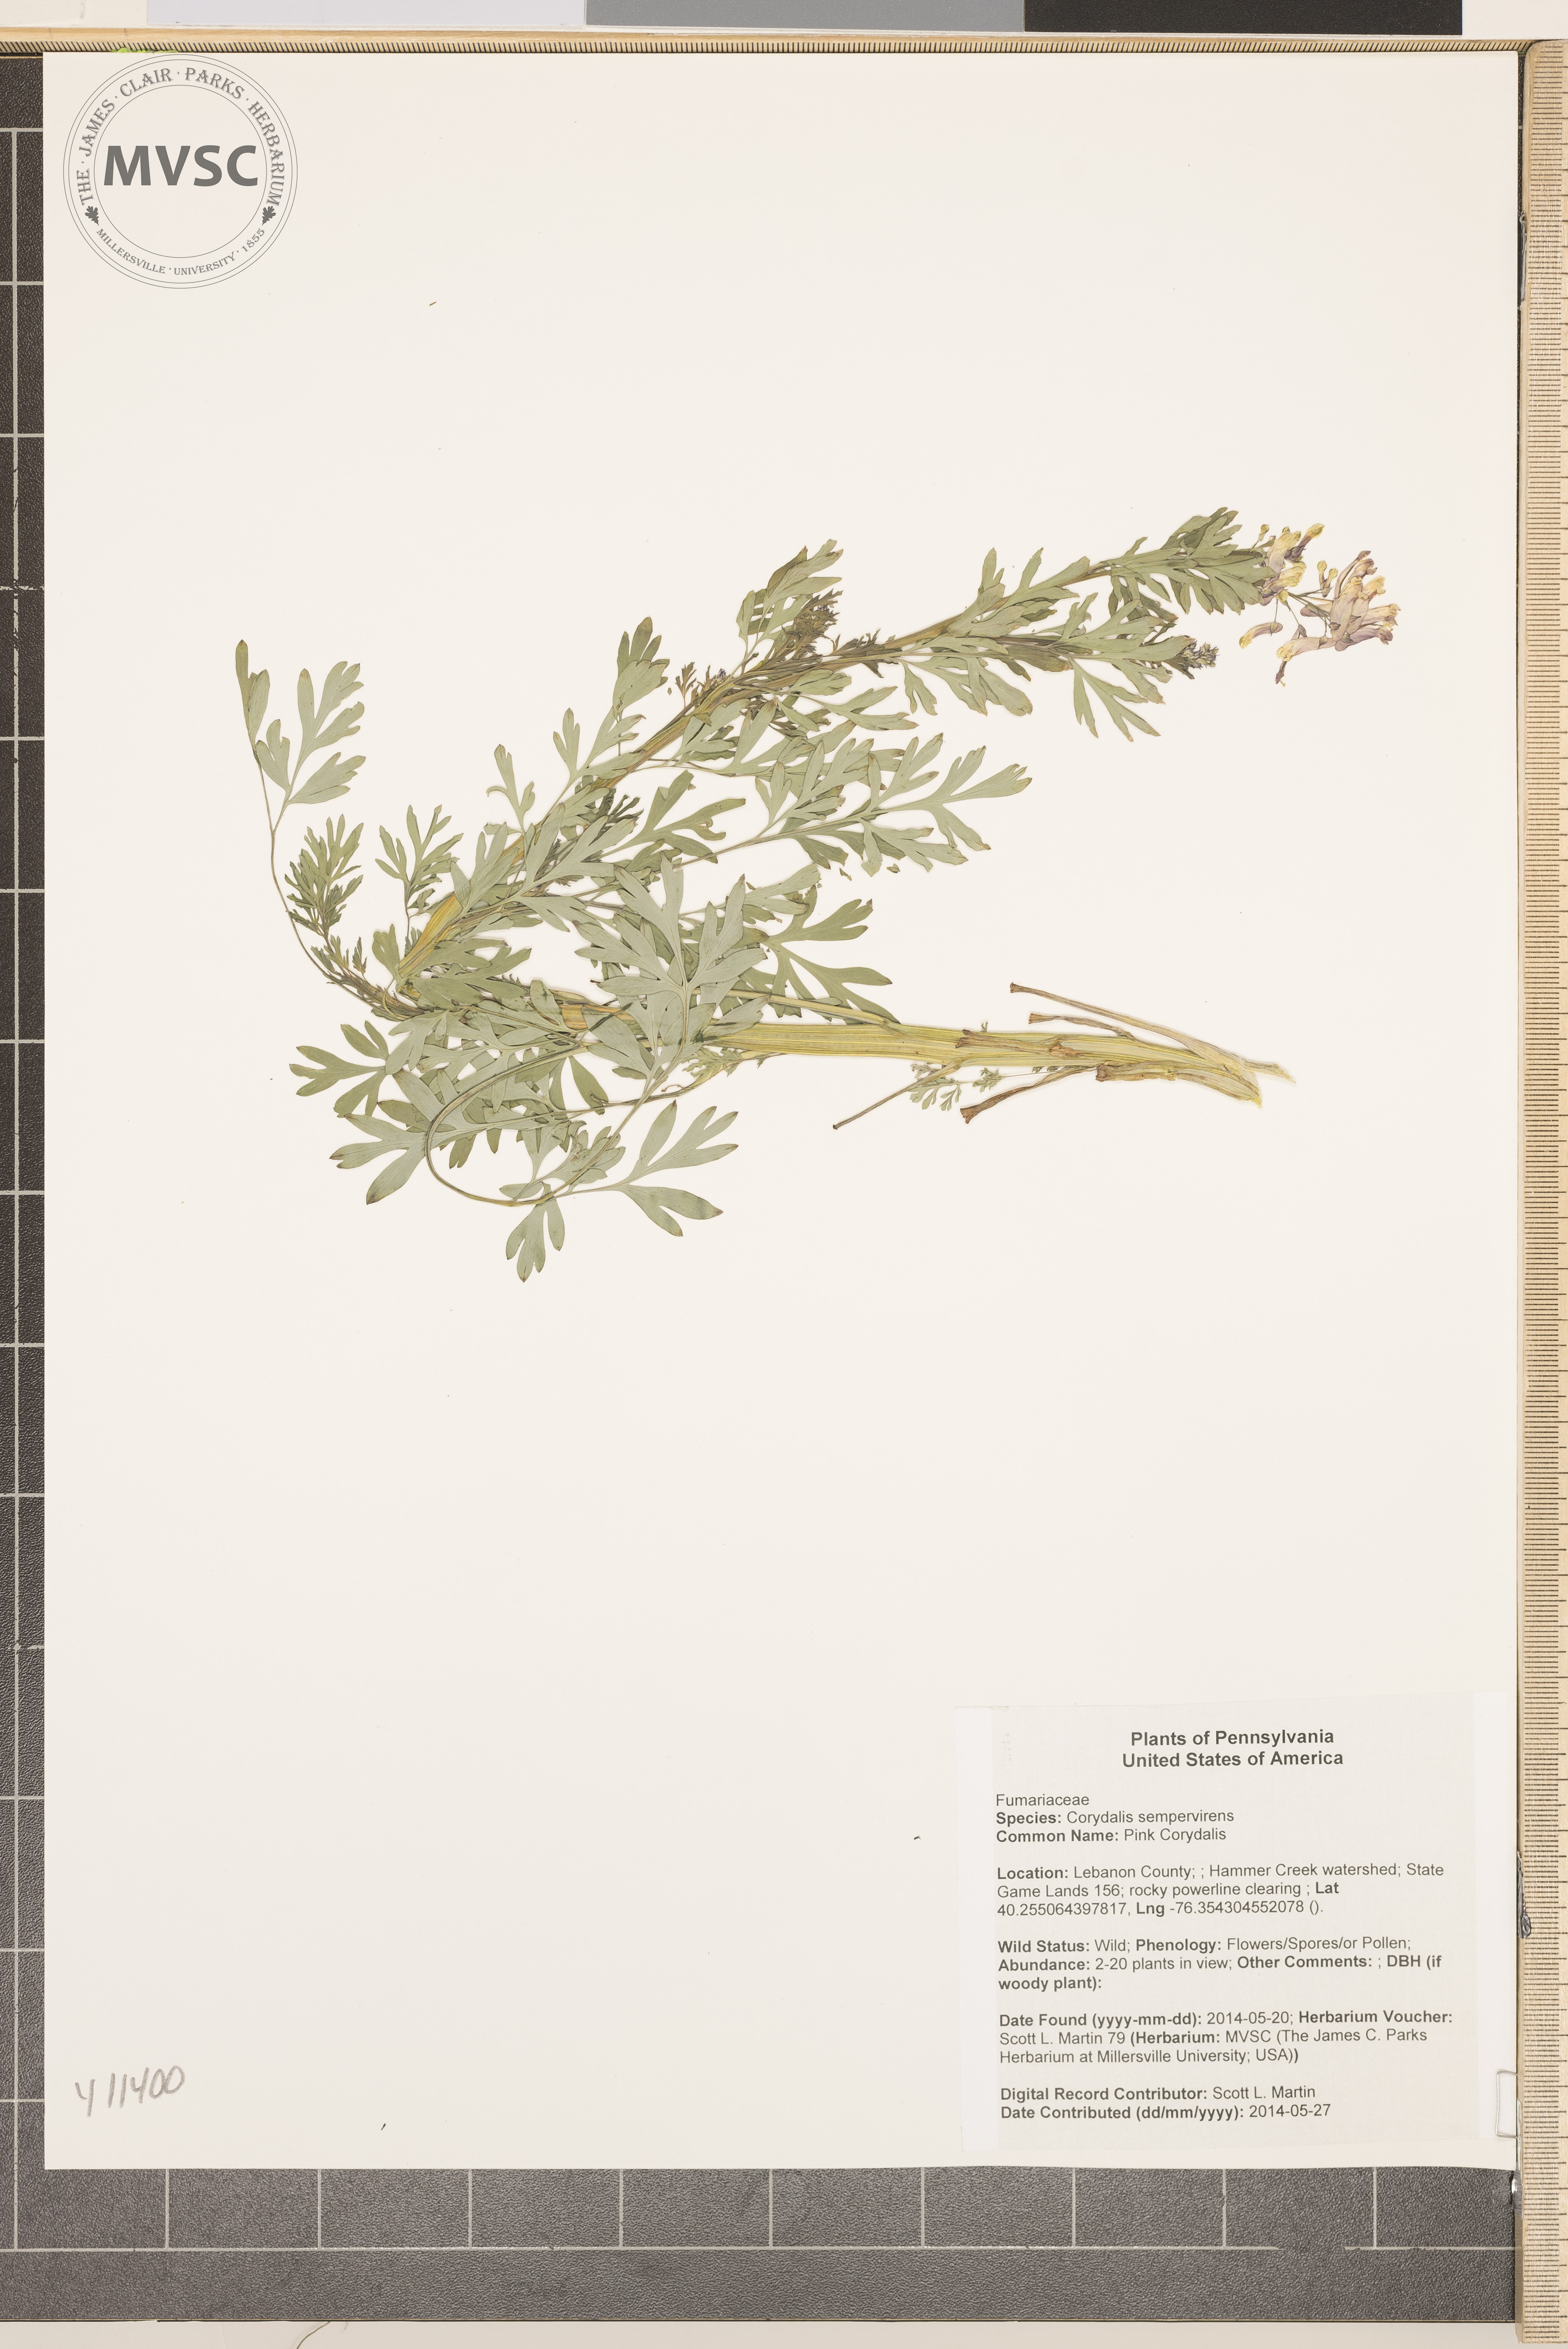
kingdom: Plantae
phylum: Tracheophyta
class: Magnoliopsida
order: Ranunculales
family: Papaveraceae
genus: Capnoides
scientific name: Capnoides sempervirens
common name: Pink Corydalis
